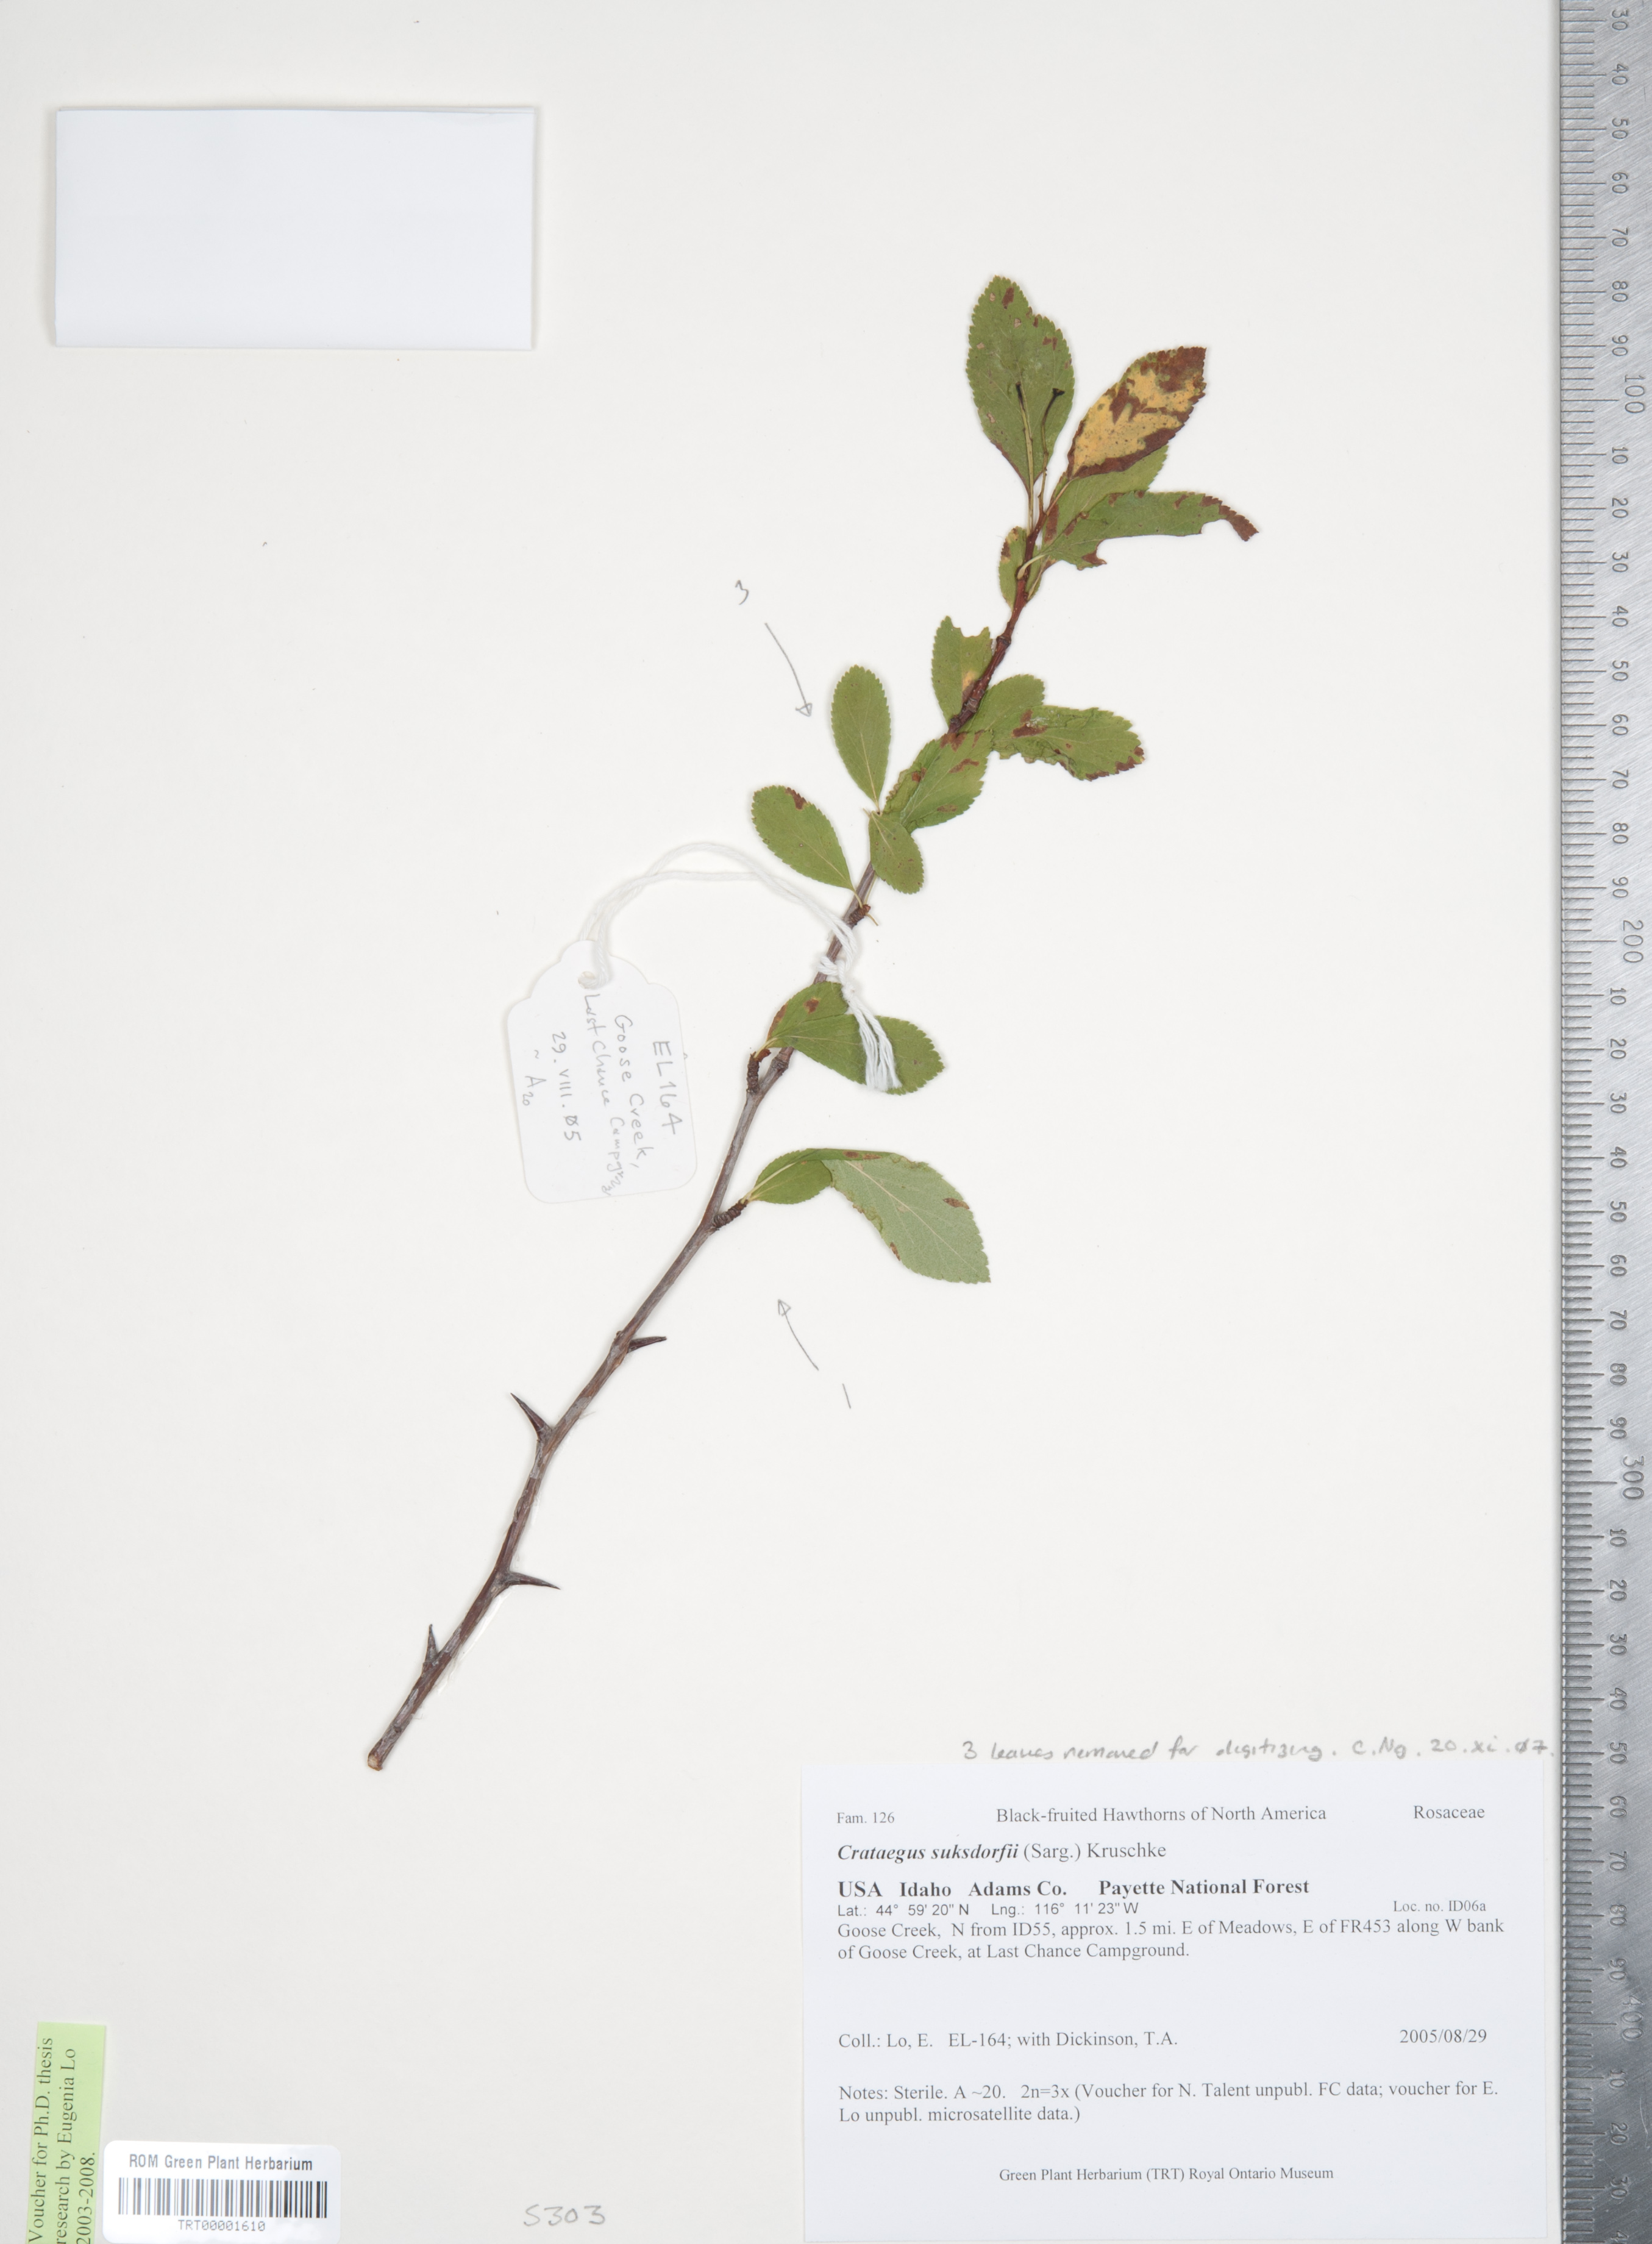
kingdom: Plantae
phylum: Tracheophyta
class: Magnoliopsida
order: Rosales
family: Rosaceae
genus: Crataegus
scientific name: Crataegus gaylussacia
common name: Huckleberry hawthorn
